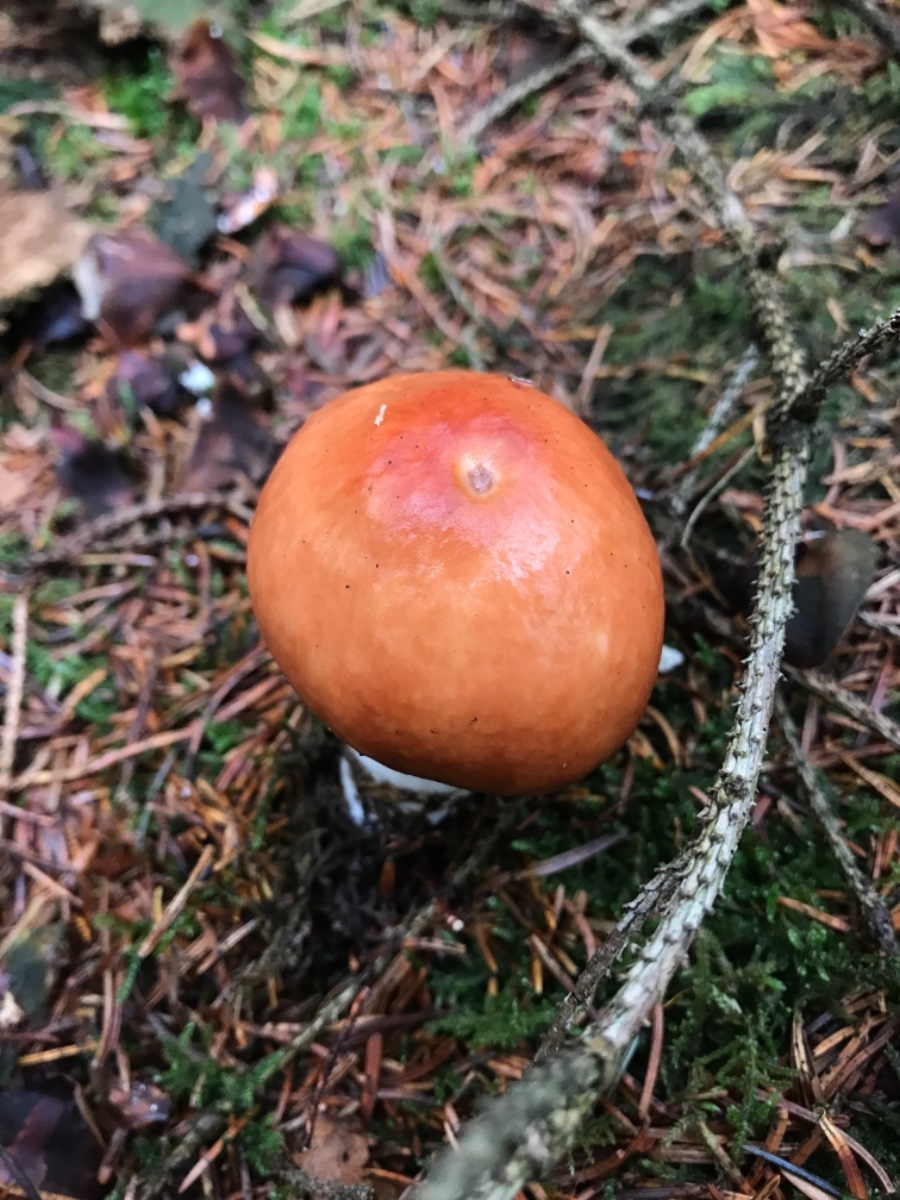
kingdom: Fungi
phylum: Basidiomycota
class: Agaricomycetes
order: Russulales
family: Russulaceae
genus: Russula
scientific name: Russula paludosa
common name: prægtig skørhat
